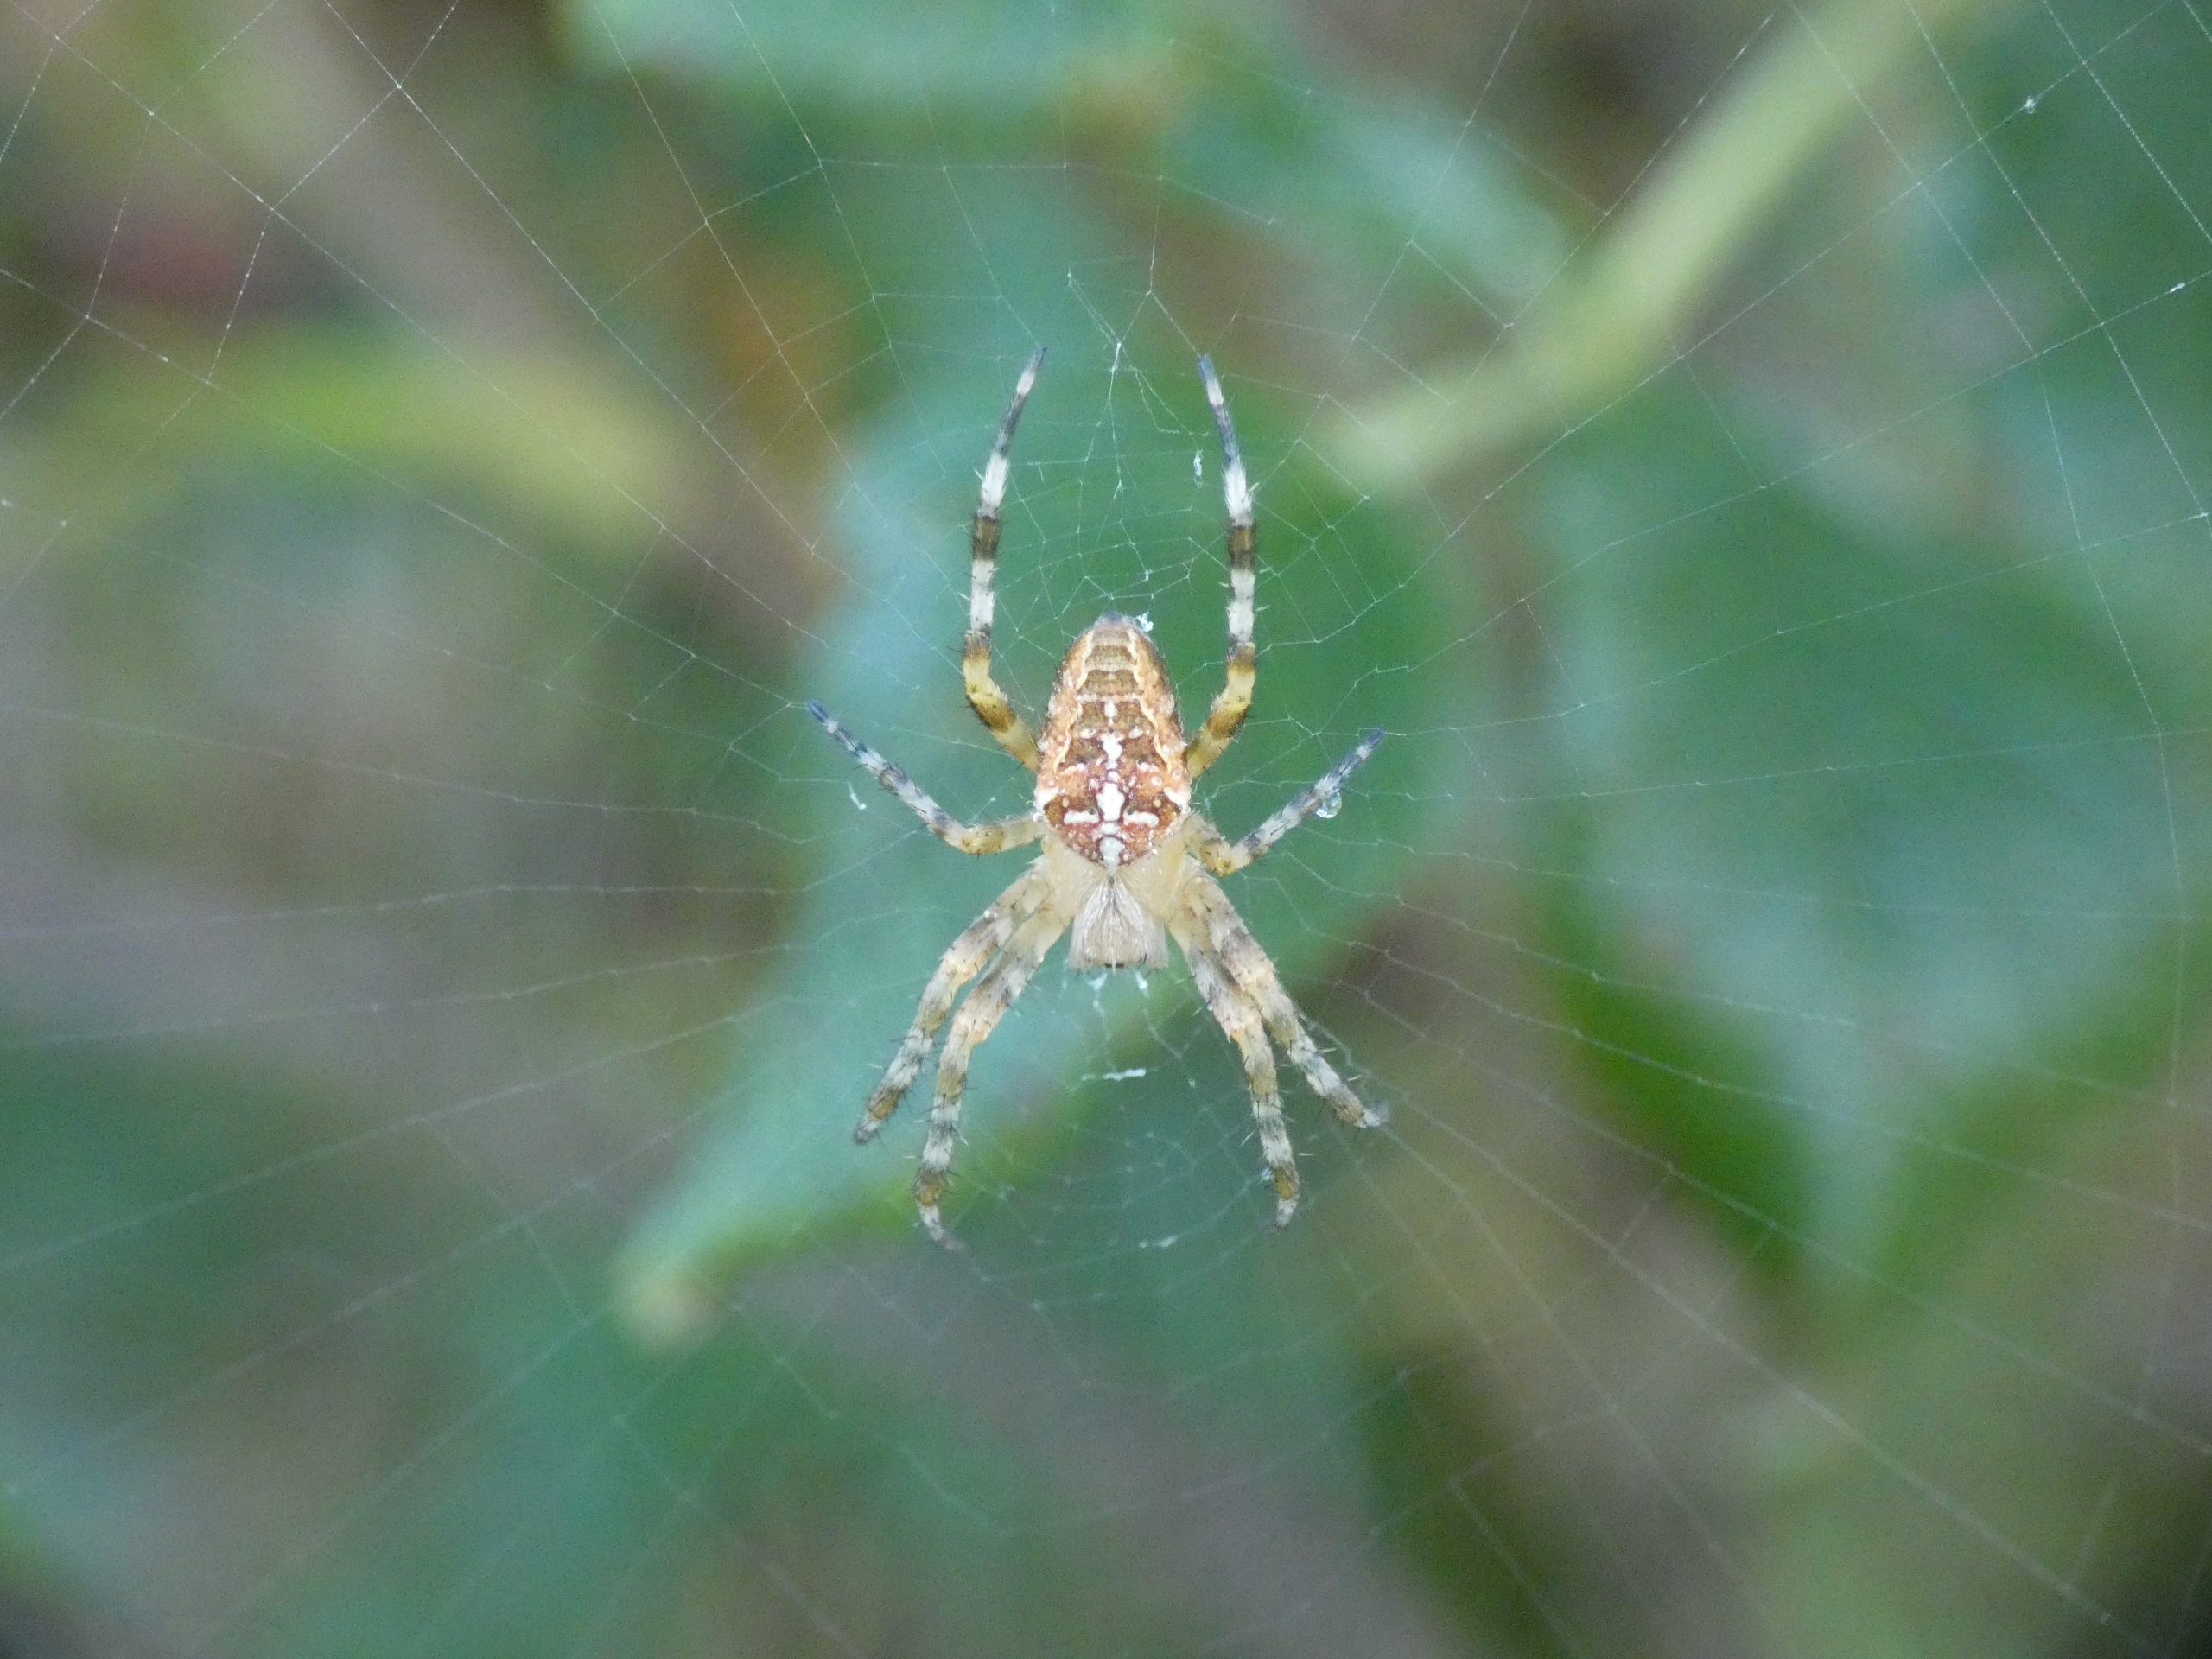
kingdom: Animalia
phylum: Arthropoda
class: Arachnida
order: Araneae
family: Araneidae
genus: Araneus
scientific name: Araneus diadematus
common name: Korsedderkop
